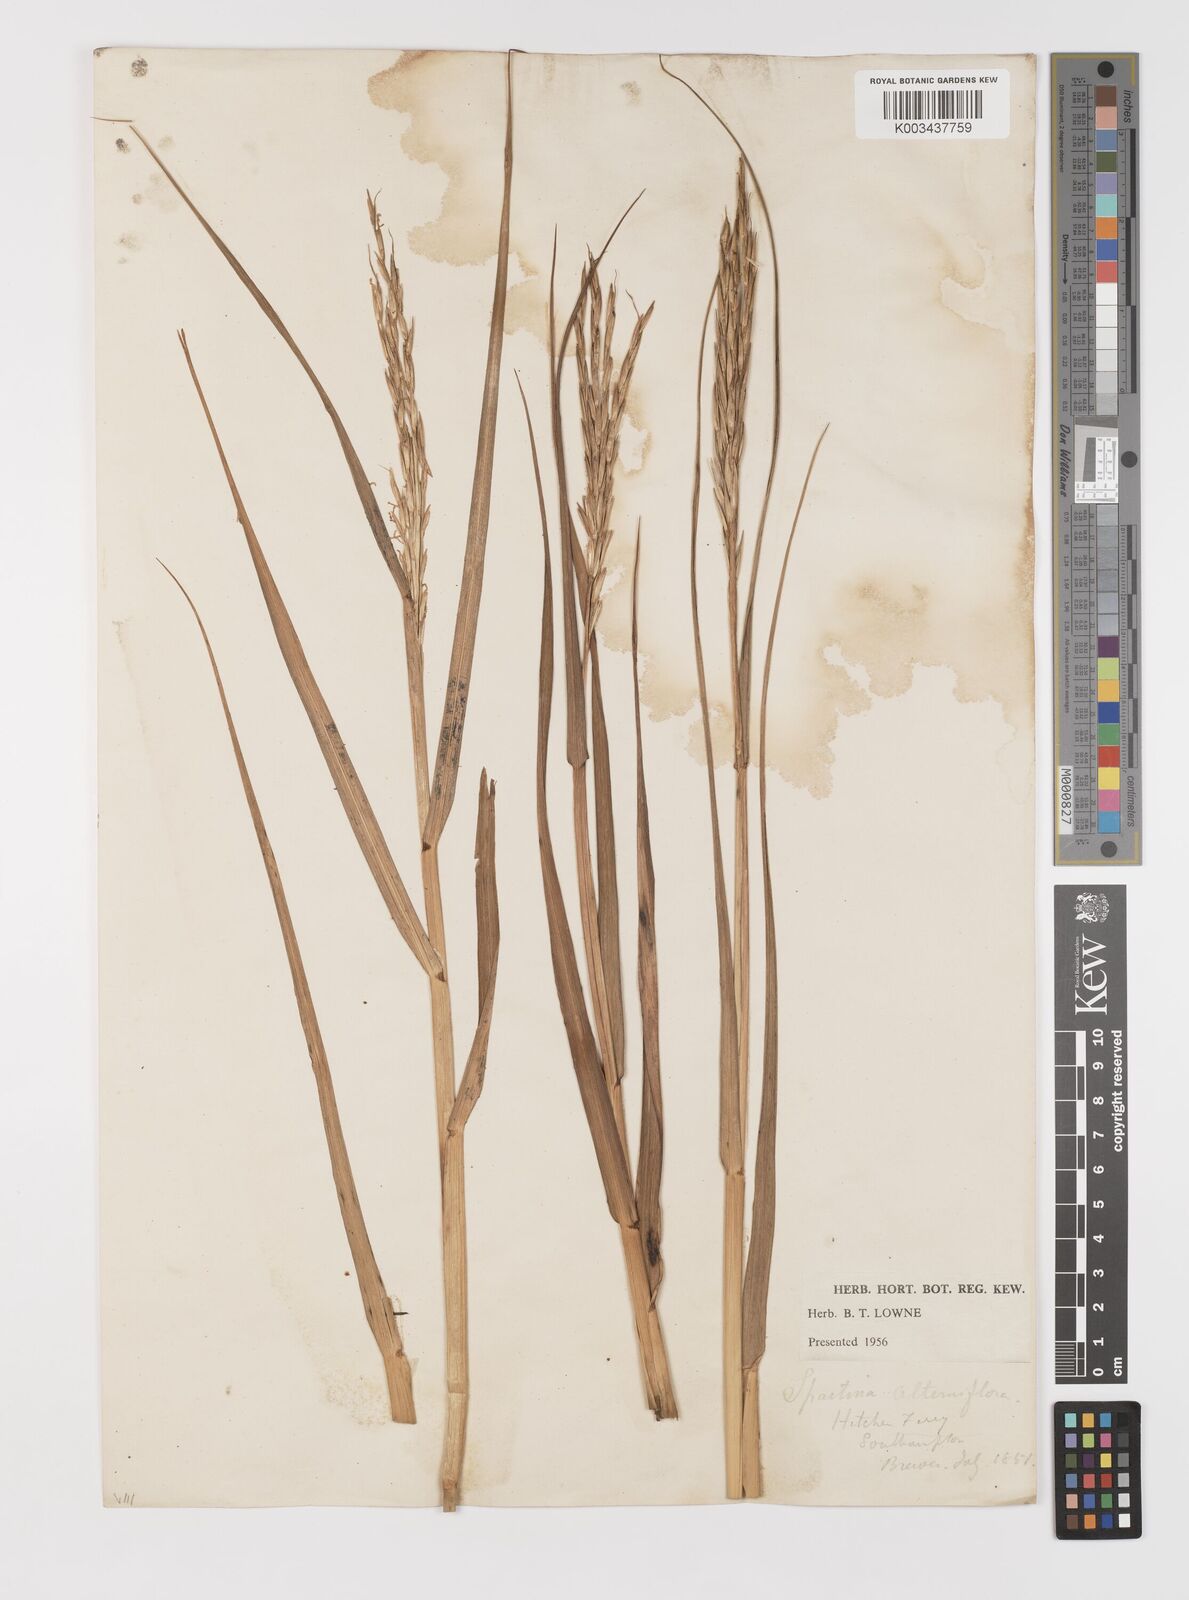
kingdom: Plantae
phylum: Tracheophyta
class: Liliopsida
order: Poales
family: Poaceae
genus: Sporobolus
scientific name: Sporobolus alterniflorus
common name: Atlantic cordgrass
